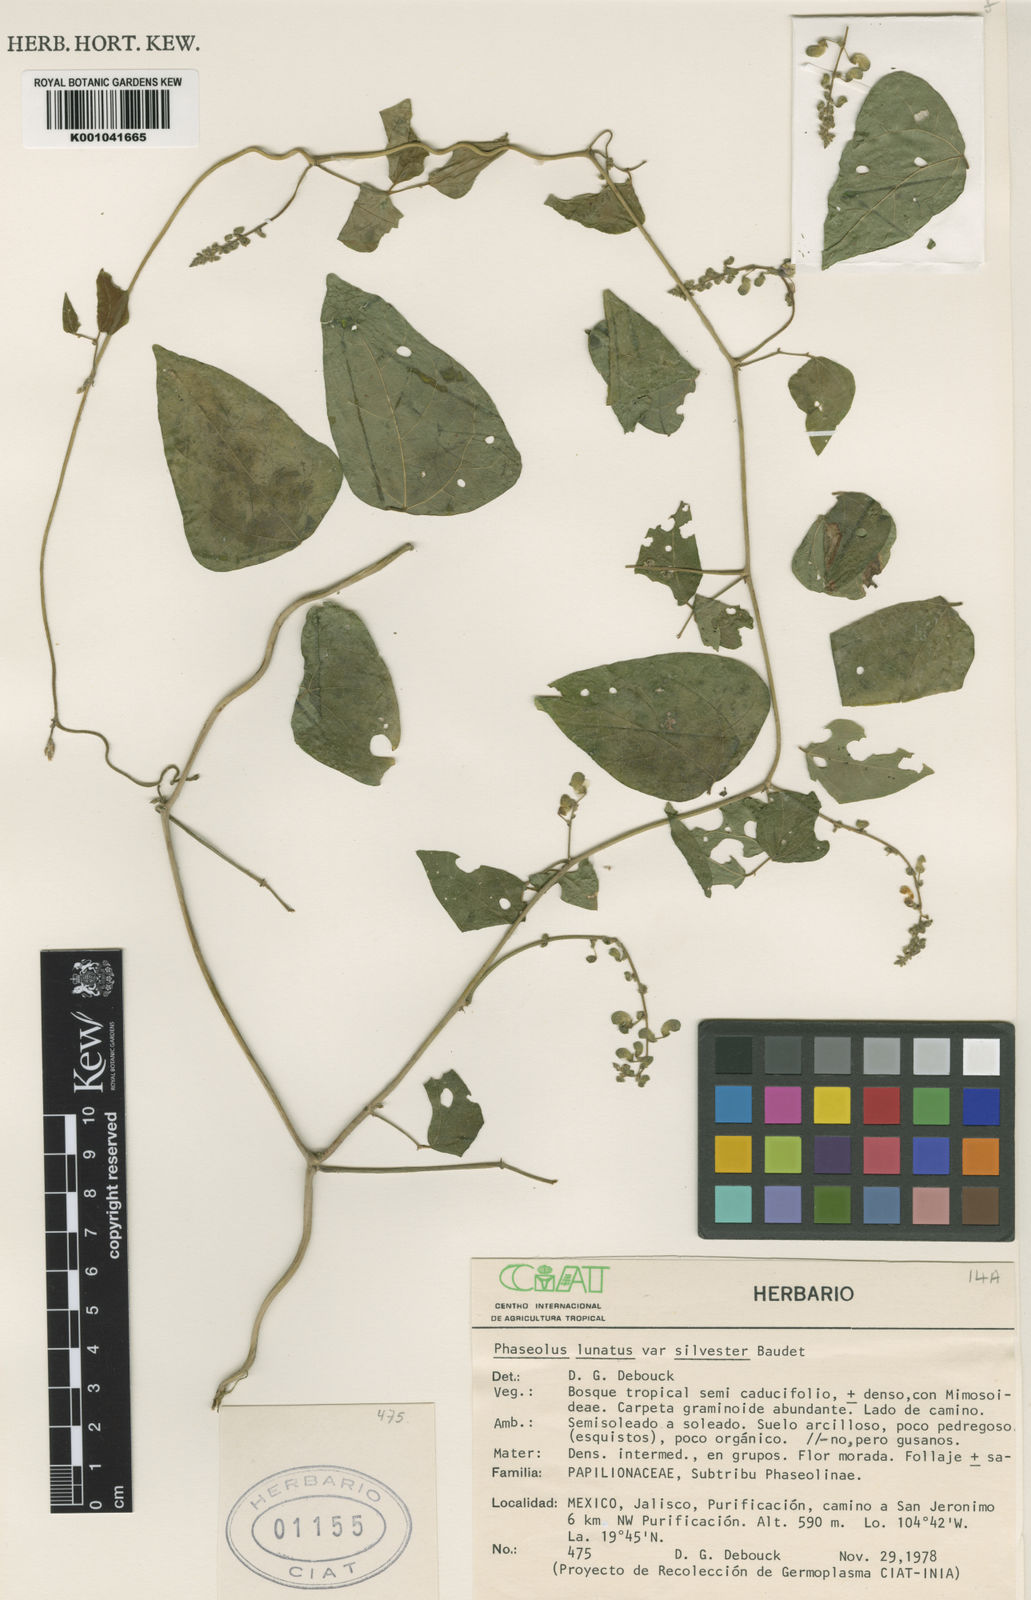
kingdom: Plantae
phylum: Tracheophyta
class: Magnoliopsida
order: Fabales
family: Fabaceae
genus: Phaseolus
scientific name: Phaseolus lunatus
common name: Sieva bean
